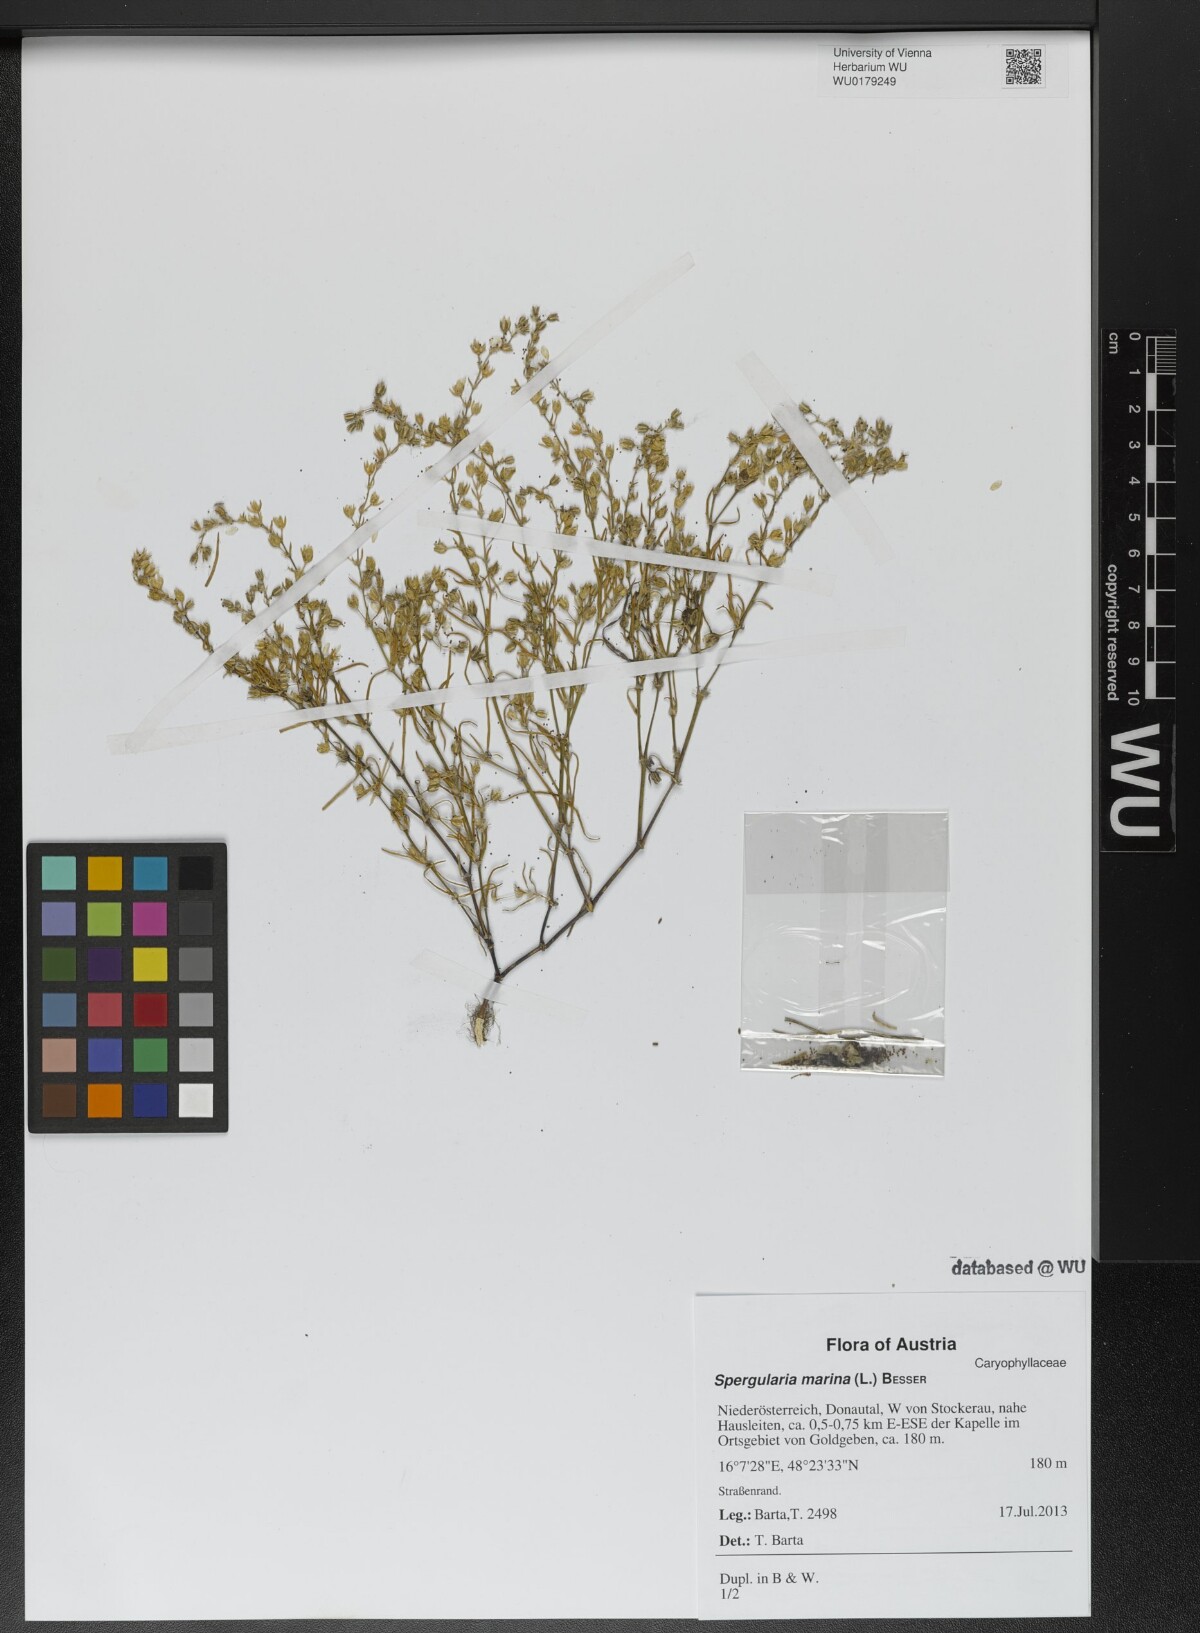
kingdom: Plantae
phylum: Tracheophyta
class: Magnoliopsida
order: Caryophyllales
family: Caryophyllaceae
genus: Spergularia
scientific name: Spergularia marina
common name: Lesser sea-spurrey
